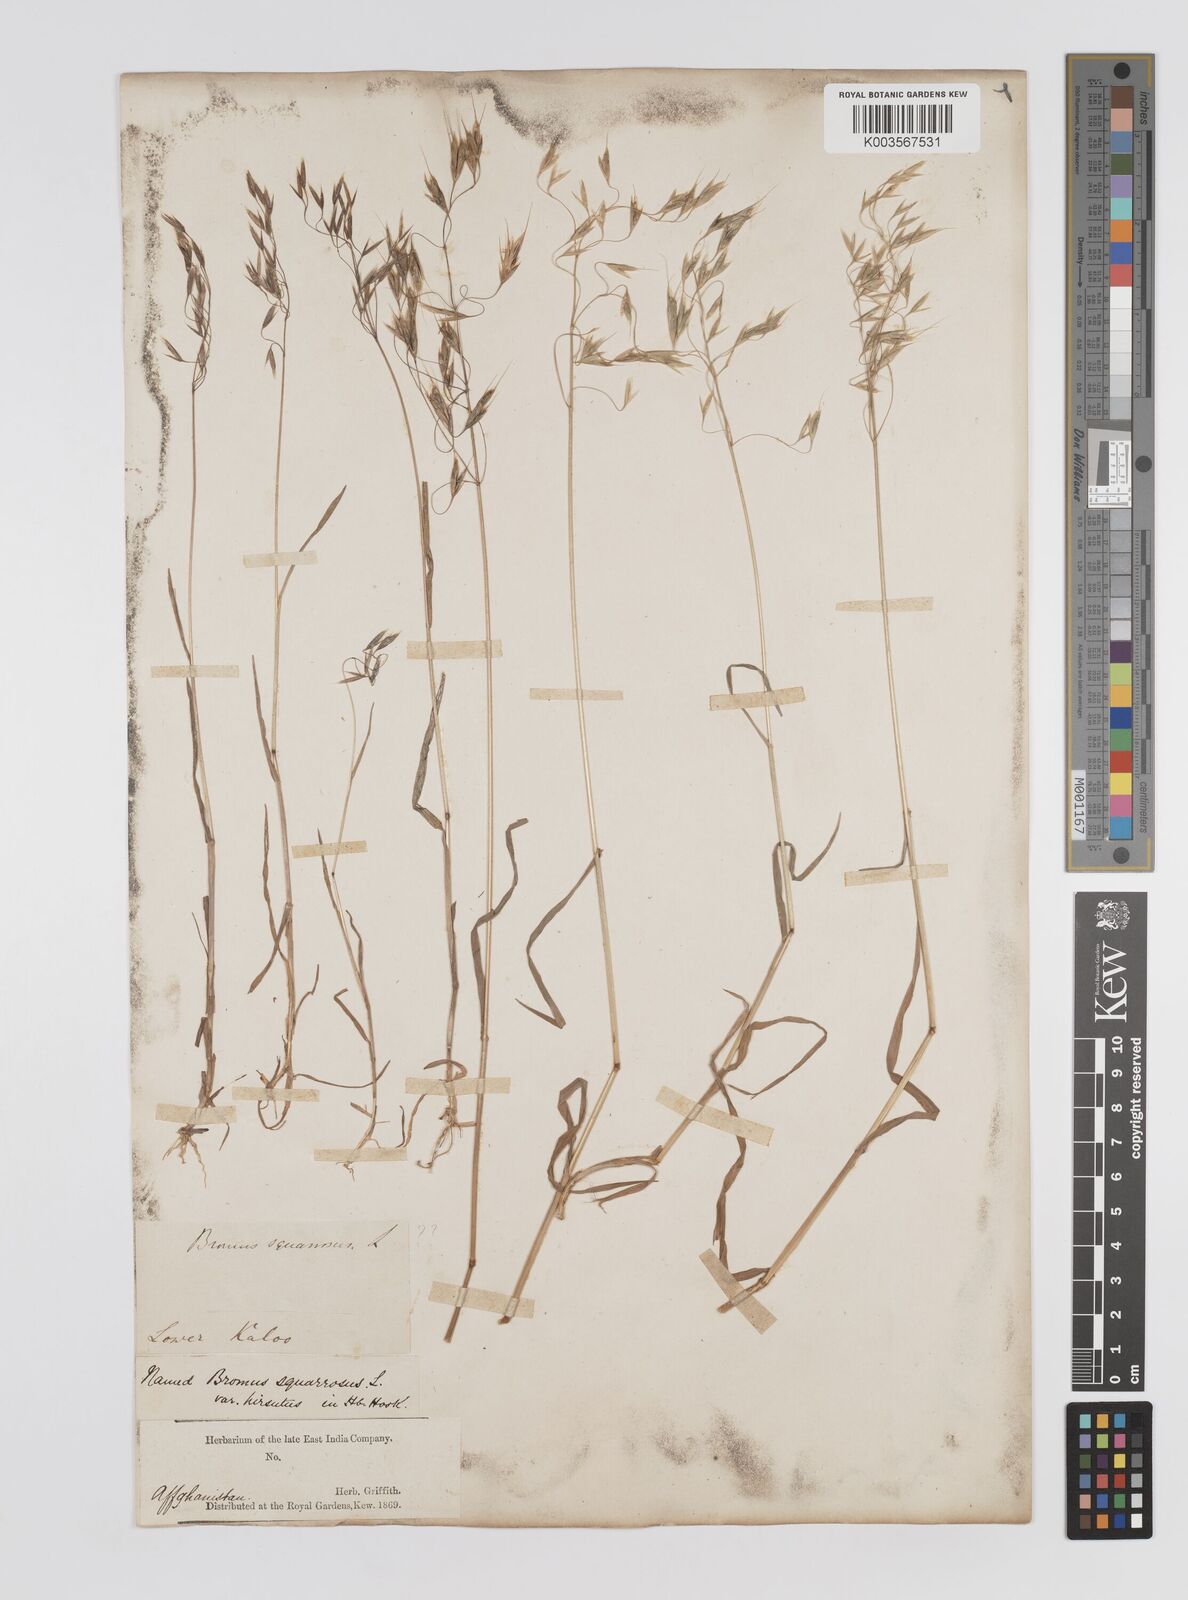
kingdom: Plantae
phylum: Tracheophyta
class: Liliopsida
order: Poales
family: Poaceae
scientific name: Poaceae
